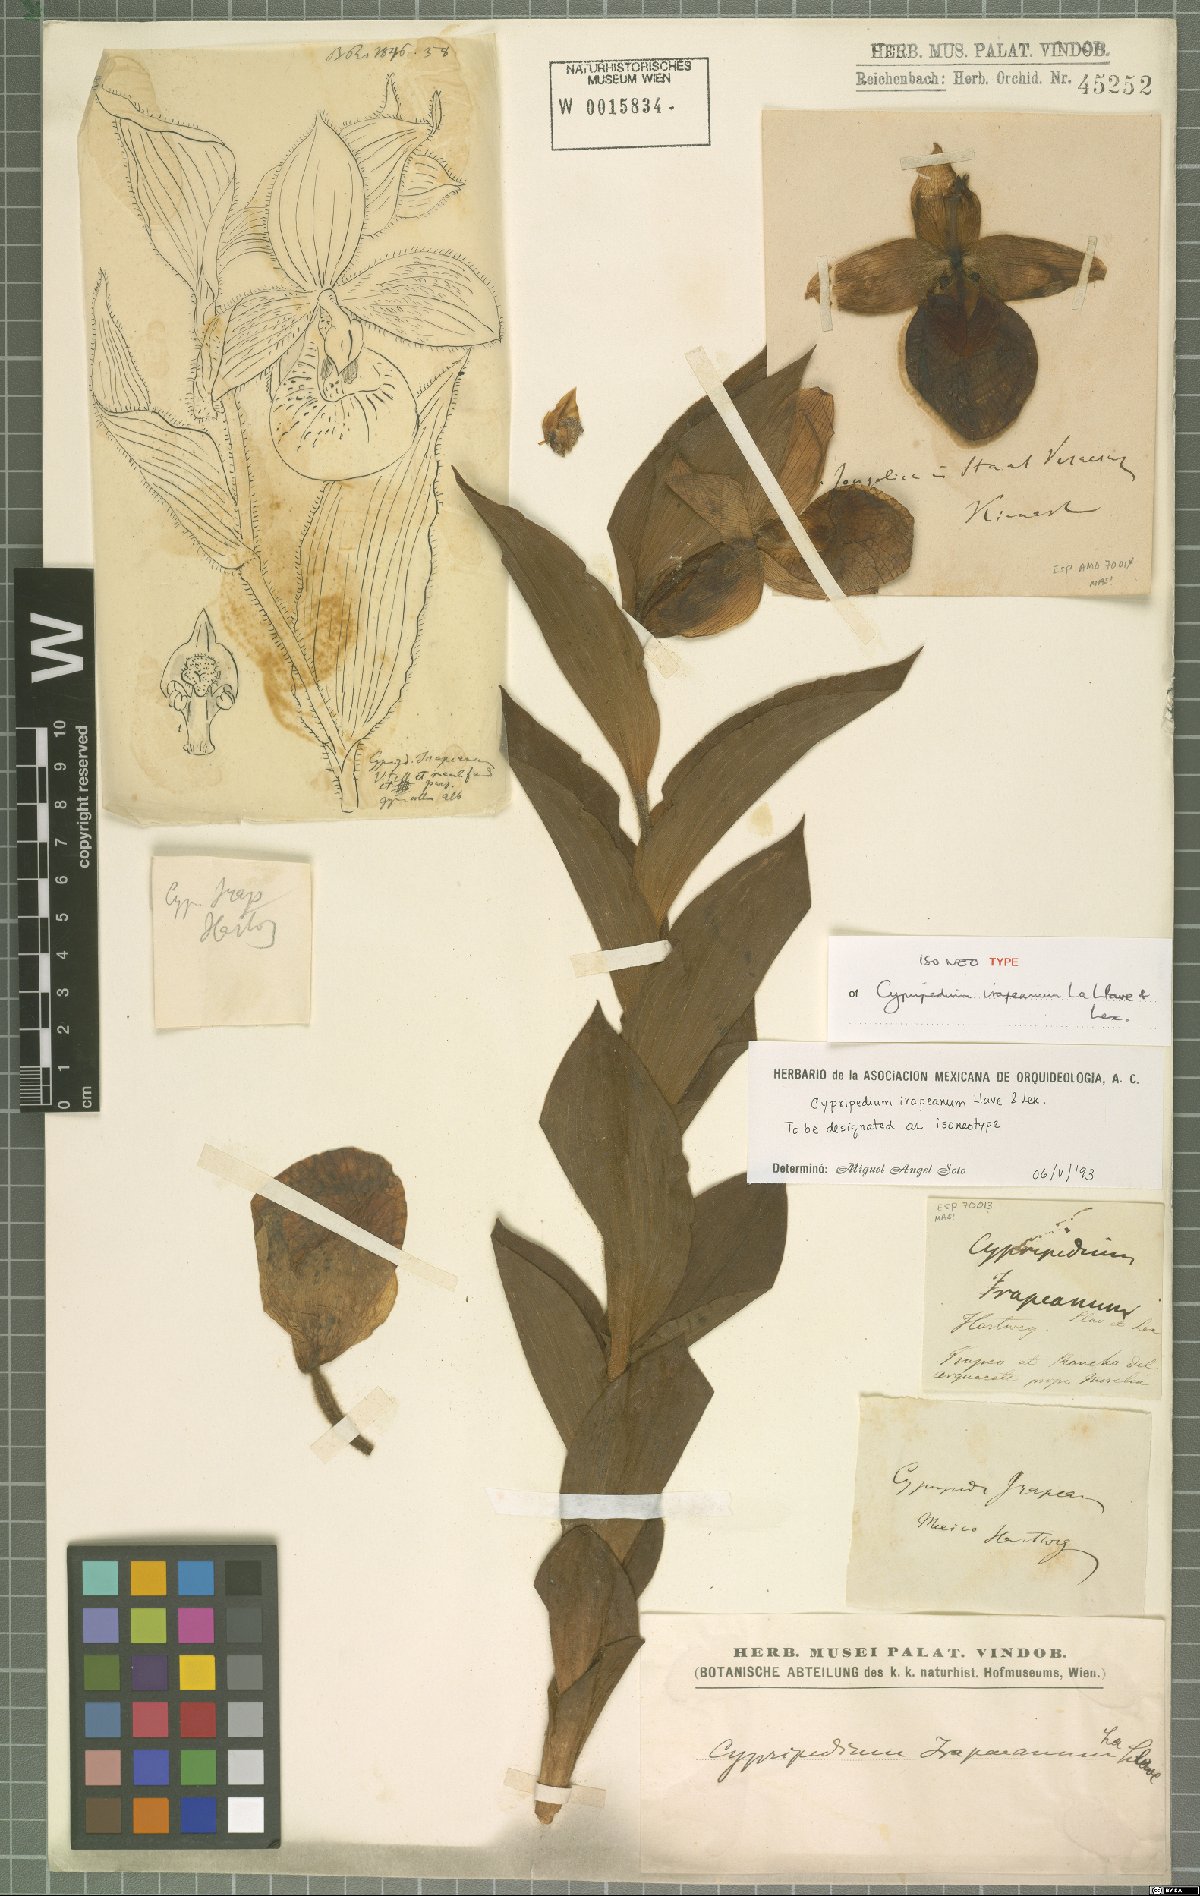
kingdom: Plantae
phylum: Tracheophyta
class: Liliopsida
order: Asparagales
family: Orchidaceae
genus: Cypripedium
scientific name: Cypripedium irapeanum
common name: Irapeao cypripedium
